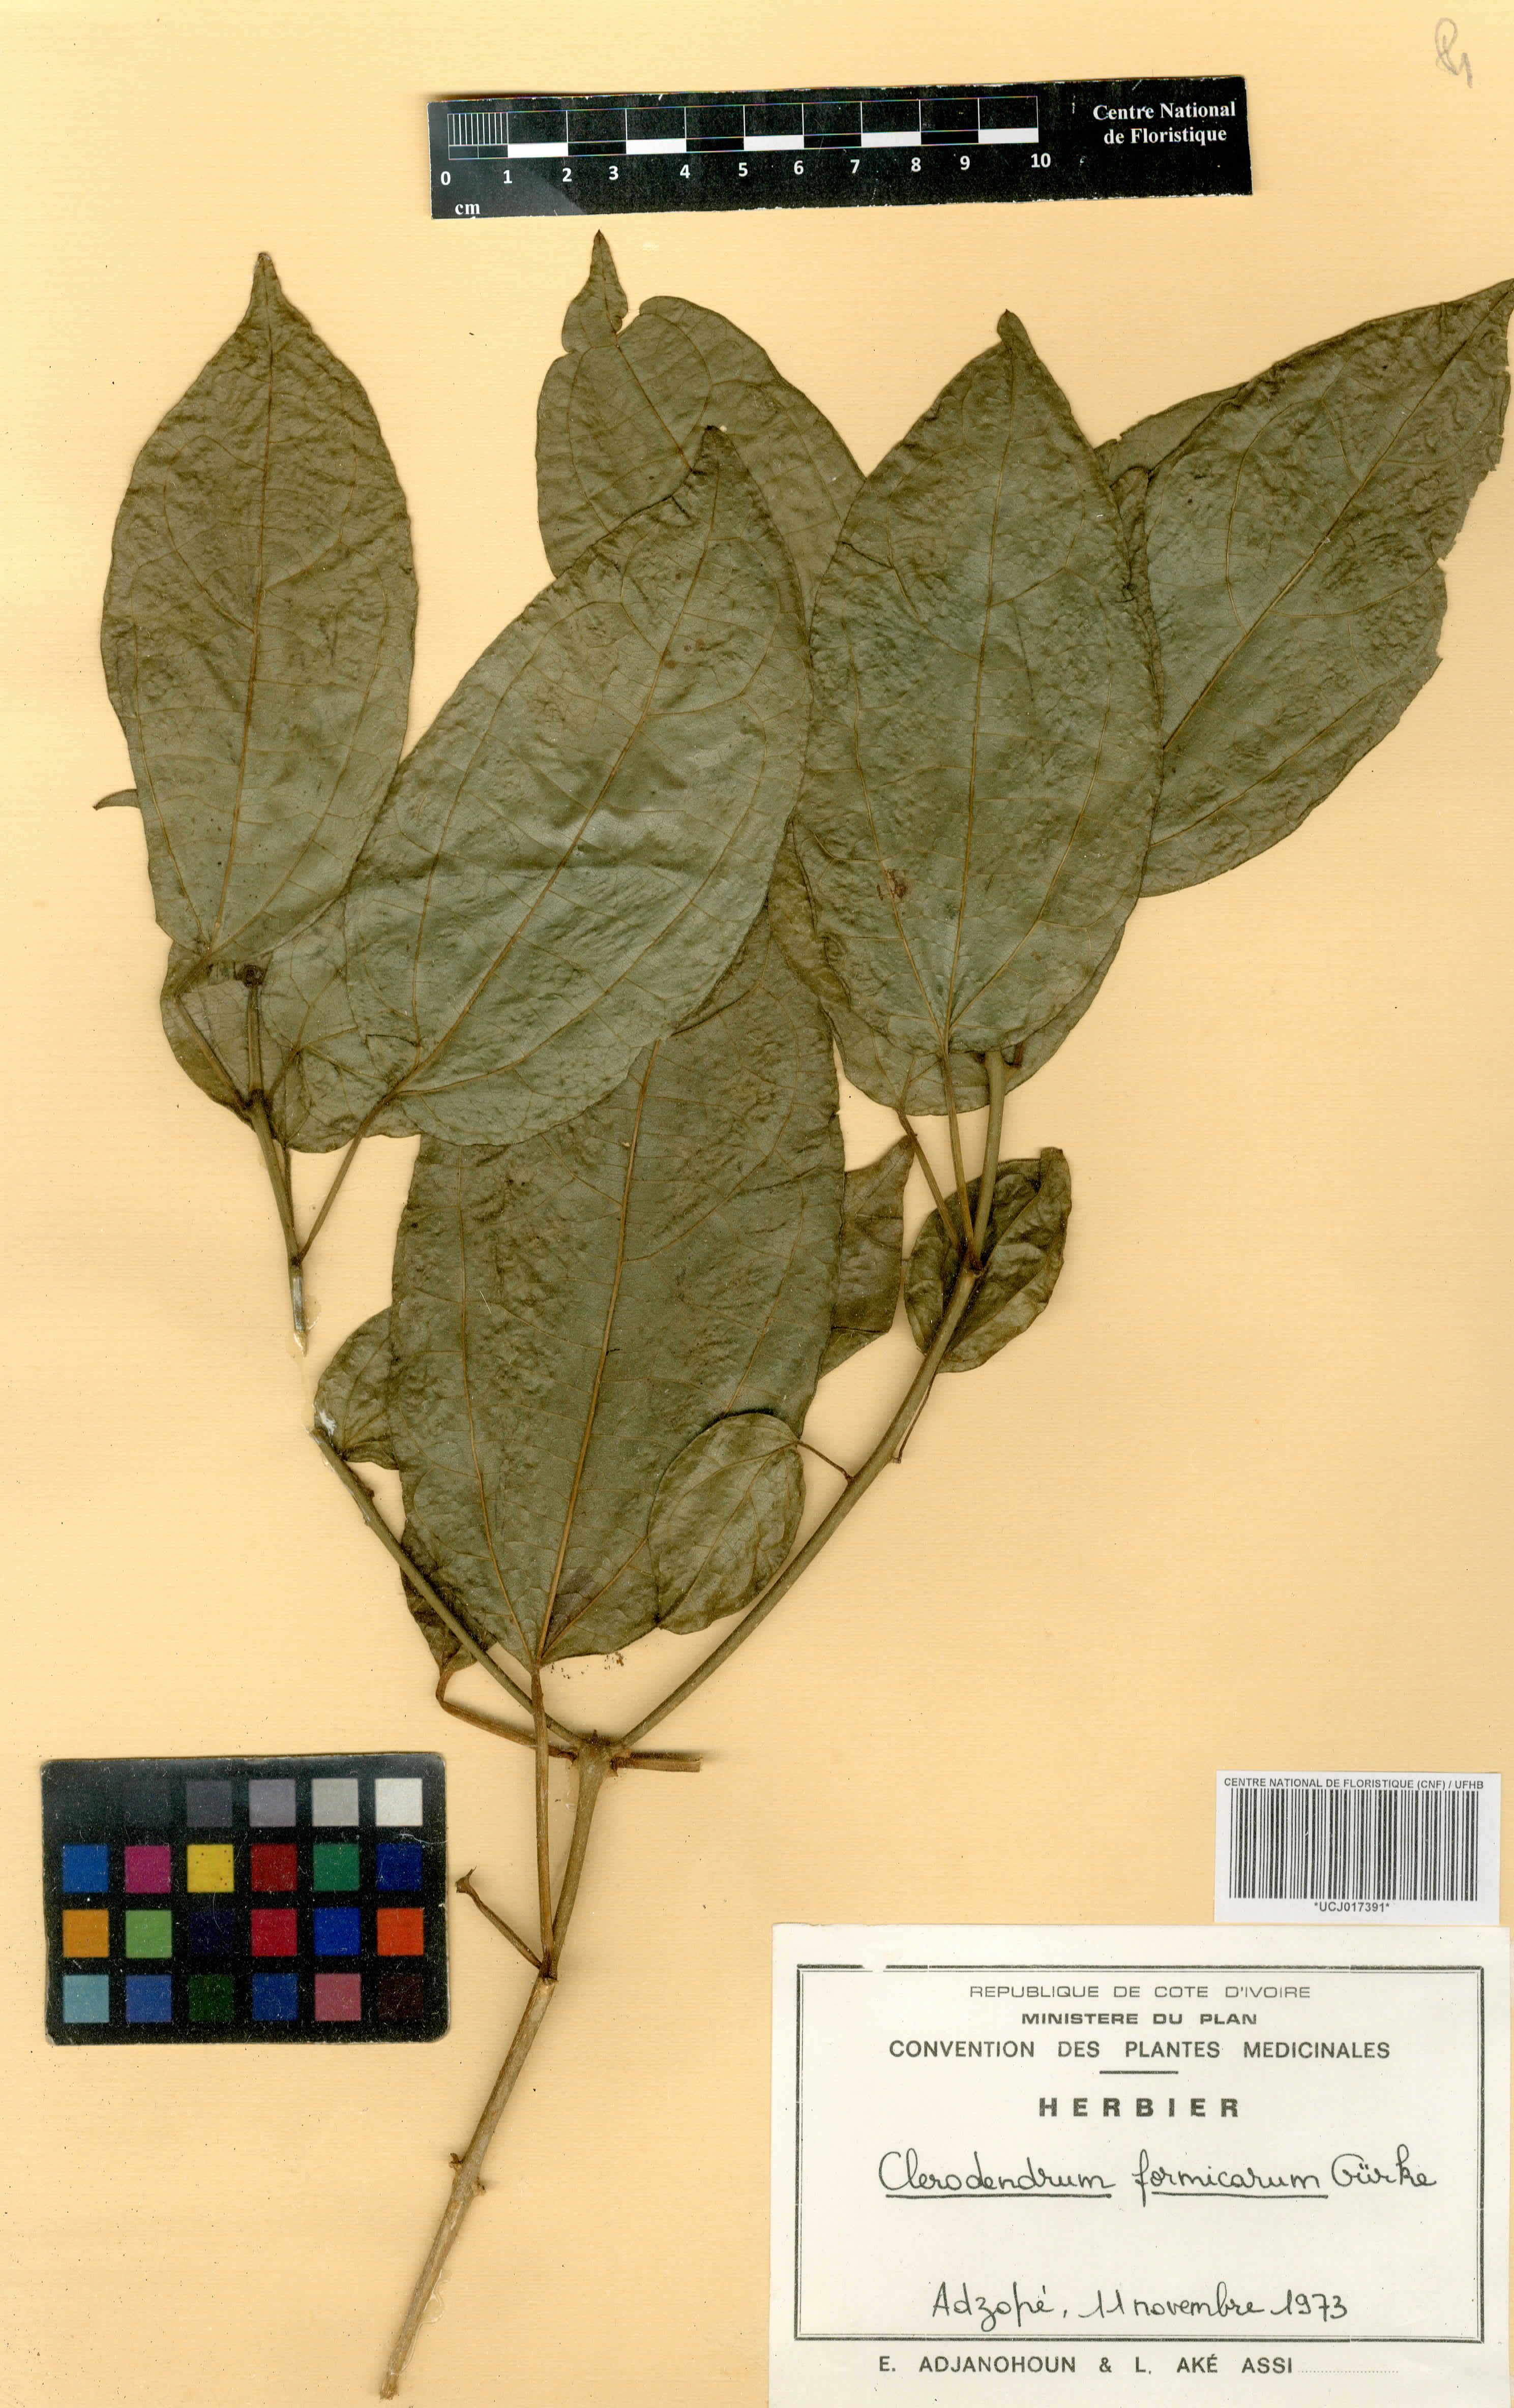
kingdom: Plantae
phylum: Tracheophyta
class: Magnoliopsida
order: Lamiales
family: Lamiaceae
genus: Clerodendrum
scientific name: Clerodendrum formicarum
